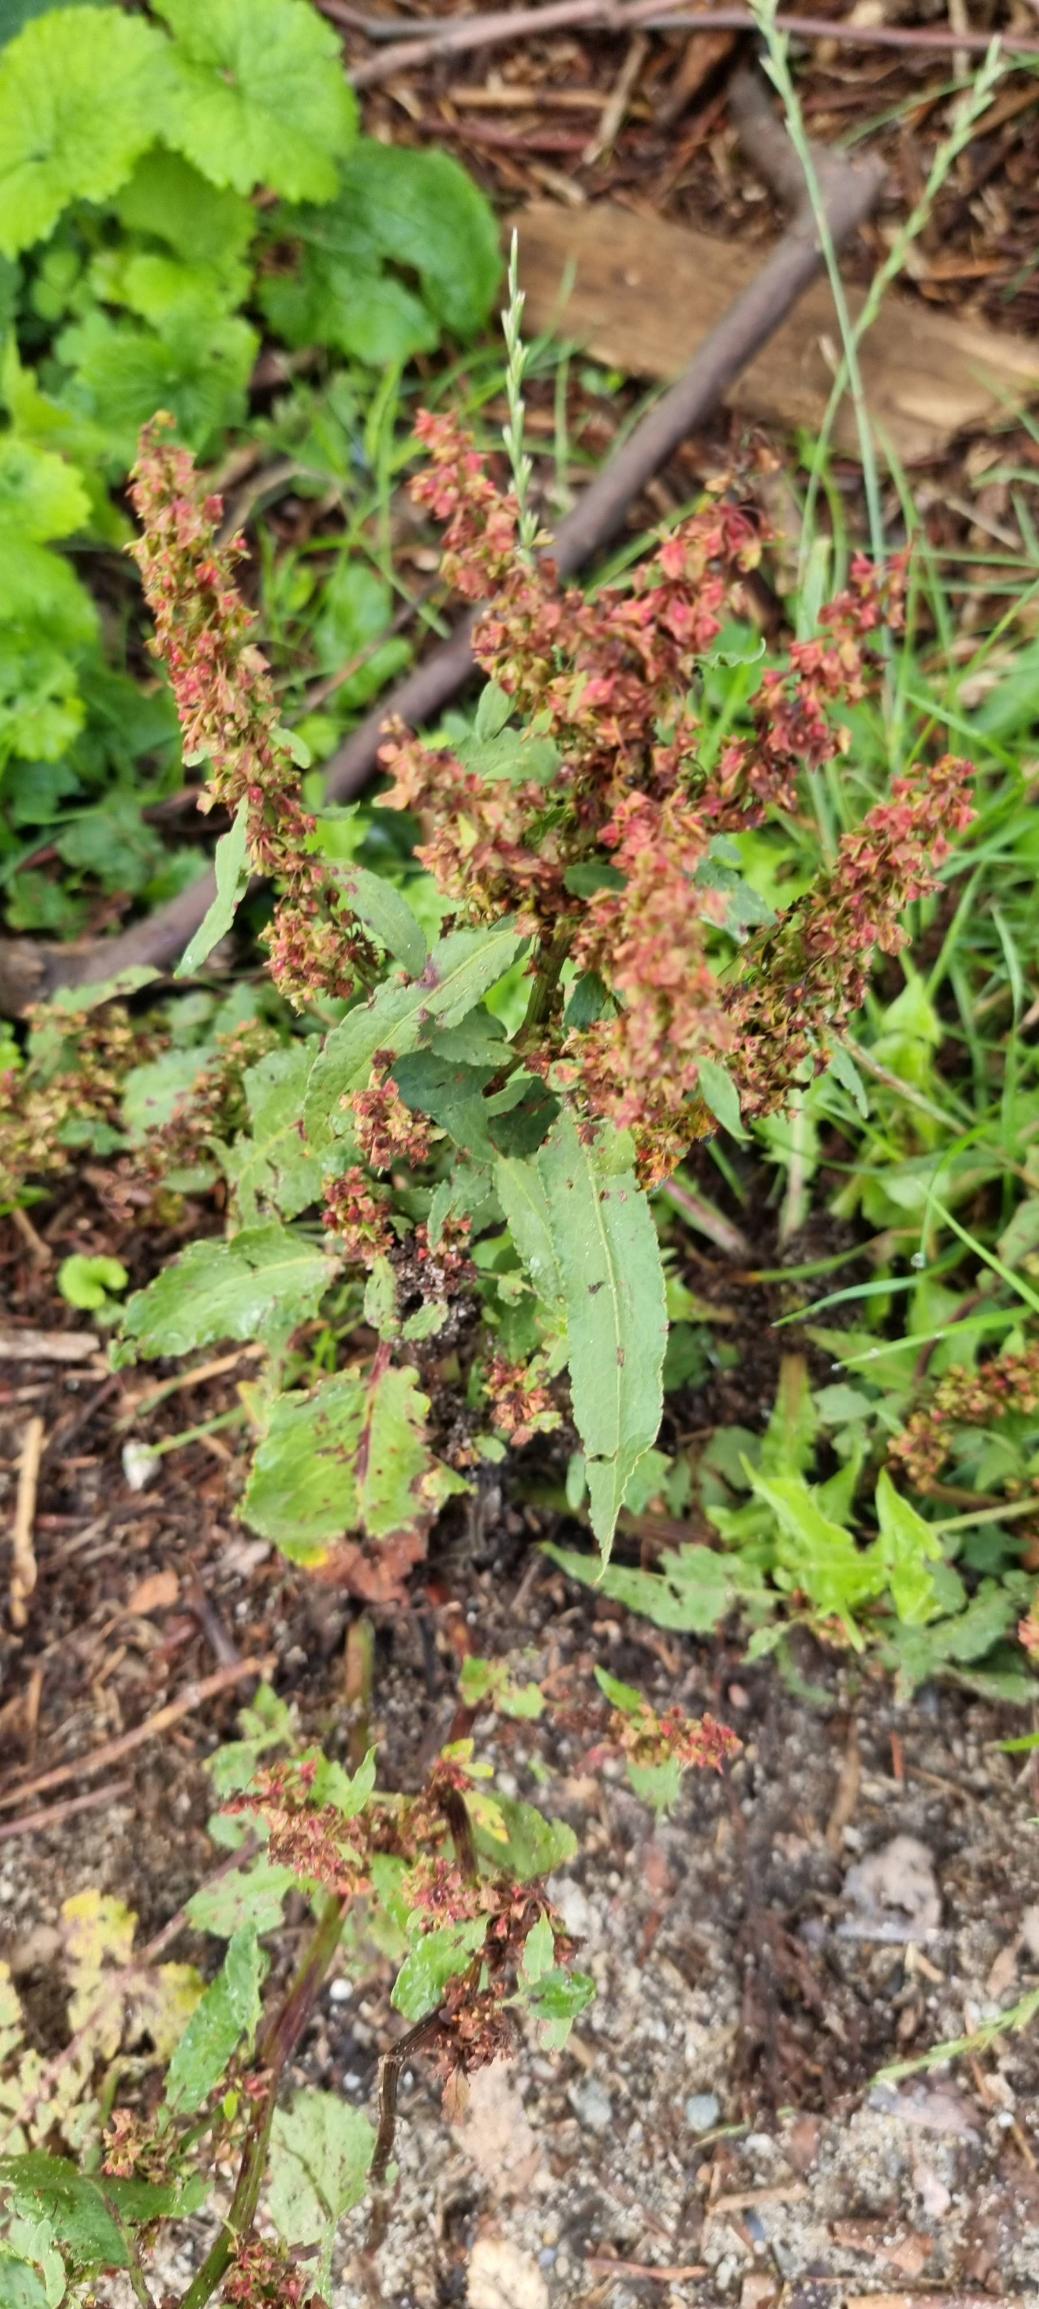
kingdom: Plantae
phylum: Tracheophyta
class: Magnoliopsida
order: Caryophyllales
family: Polygonaceae
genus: Rumex
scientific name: Rumex obtusifolius
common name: Butbladet skræppe
